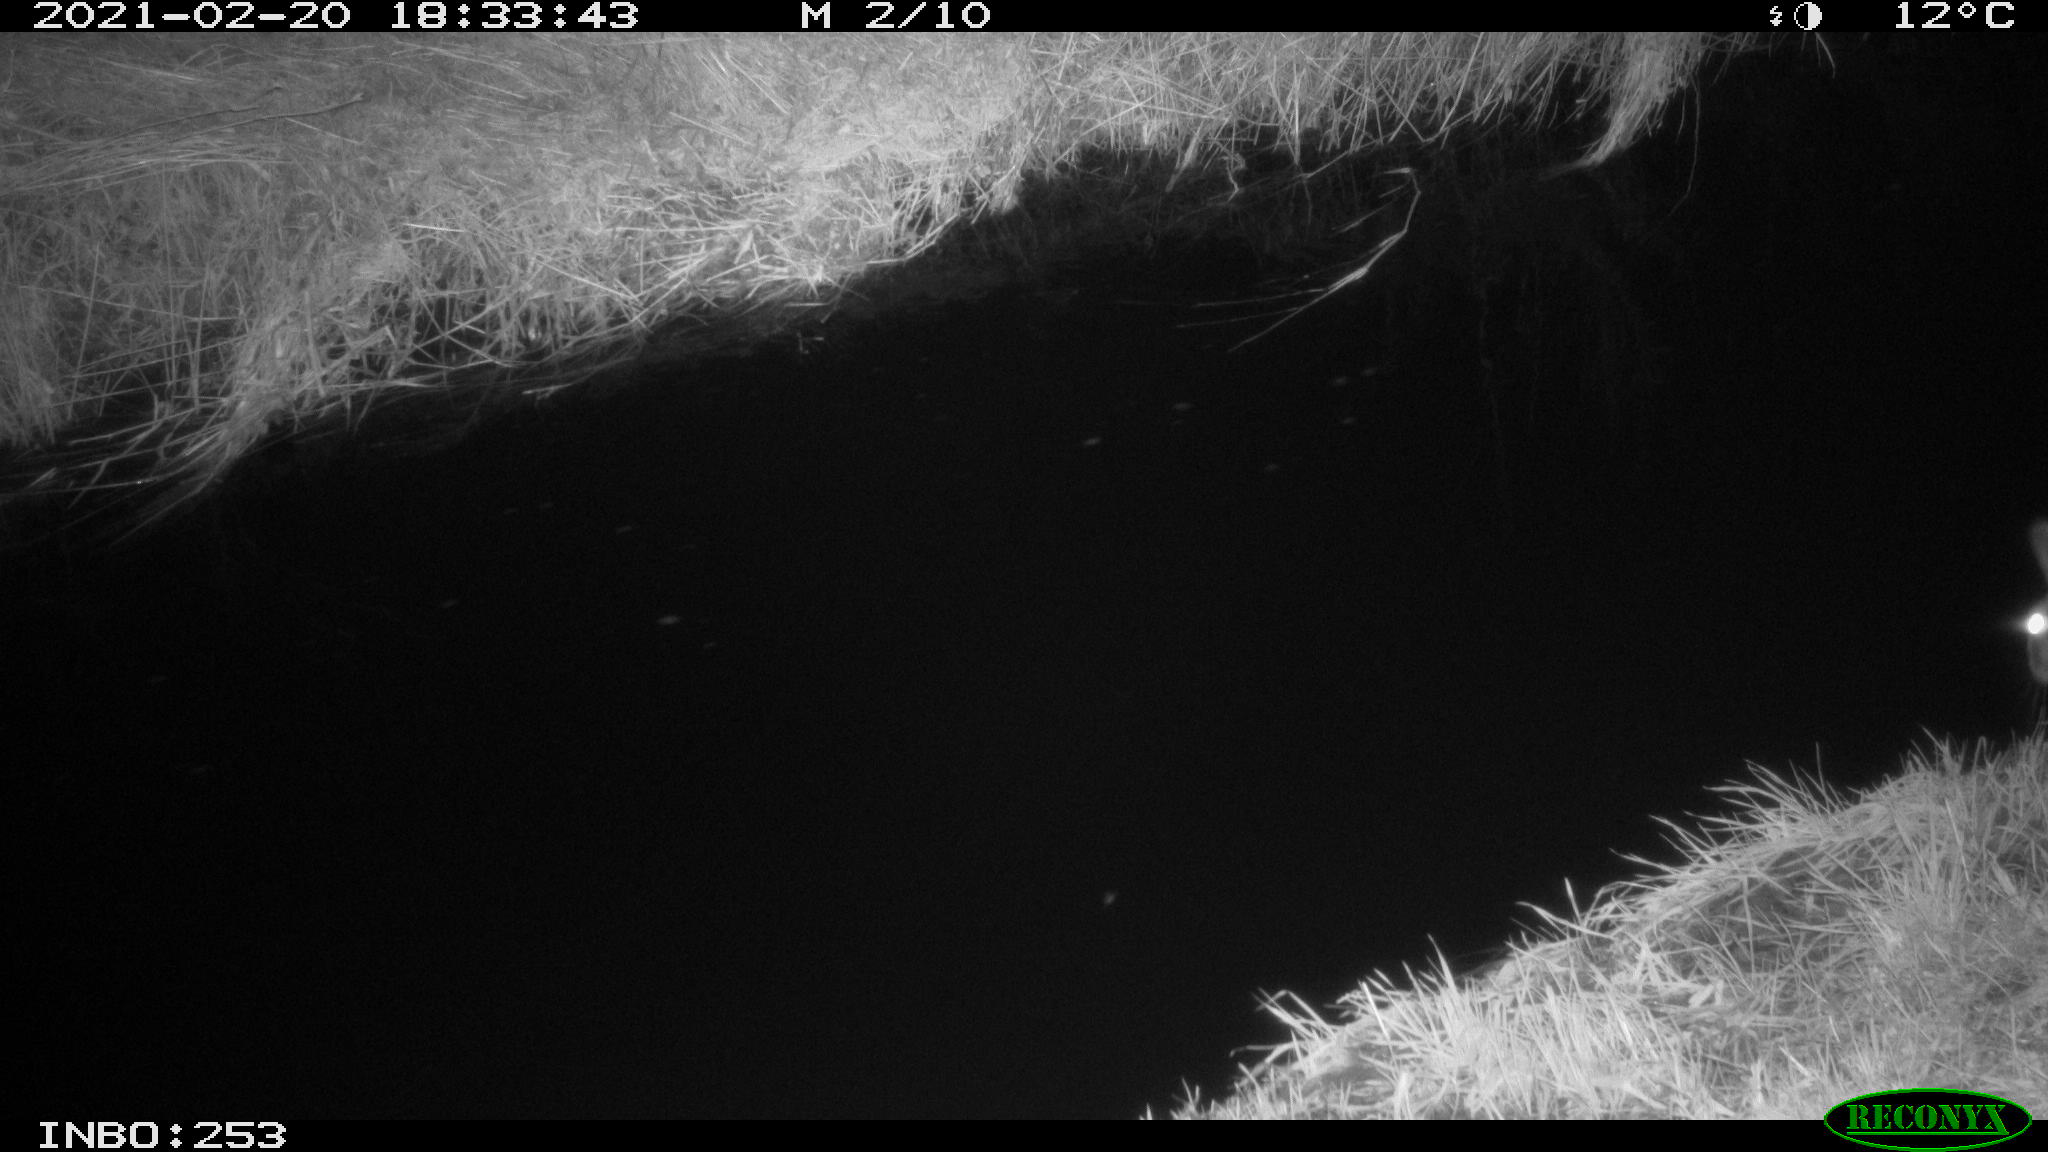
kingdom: Animalia
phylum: Chordata
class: Mammalia
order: Lagomorpha
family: Leporidae
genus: Oryctolagus
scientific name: Oryctolagus cuniculus
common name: European rabbit
